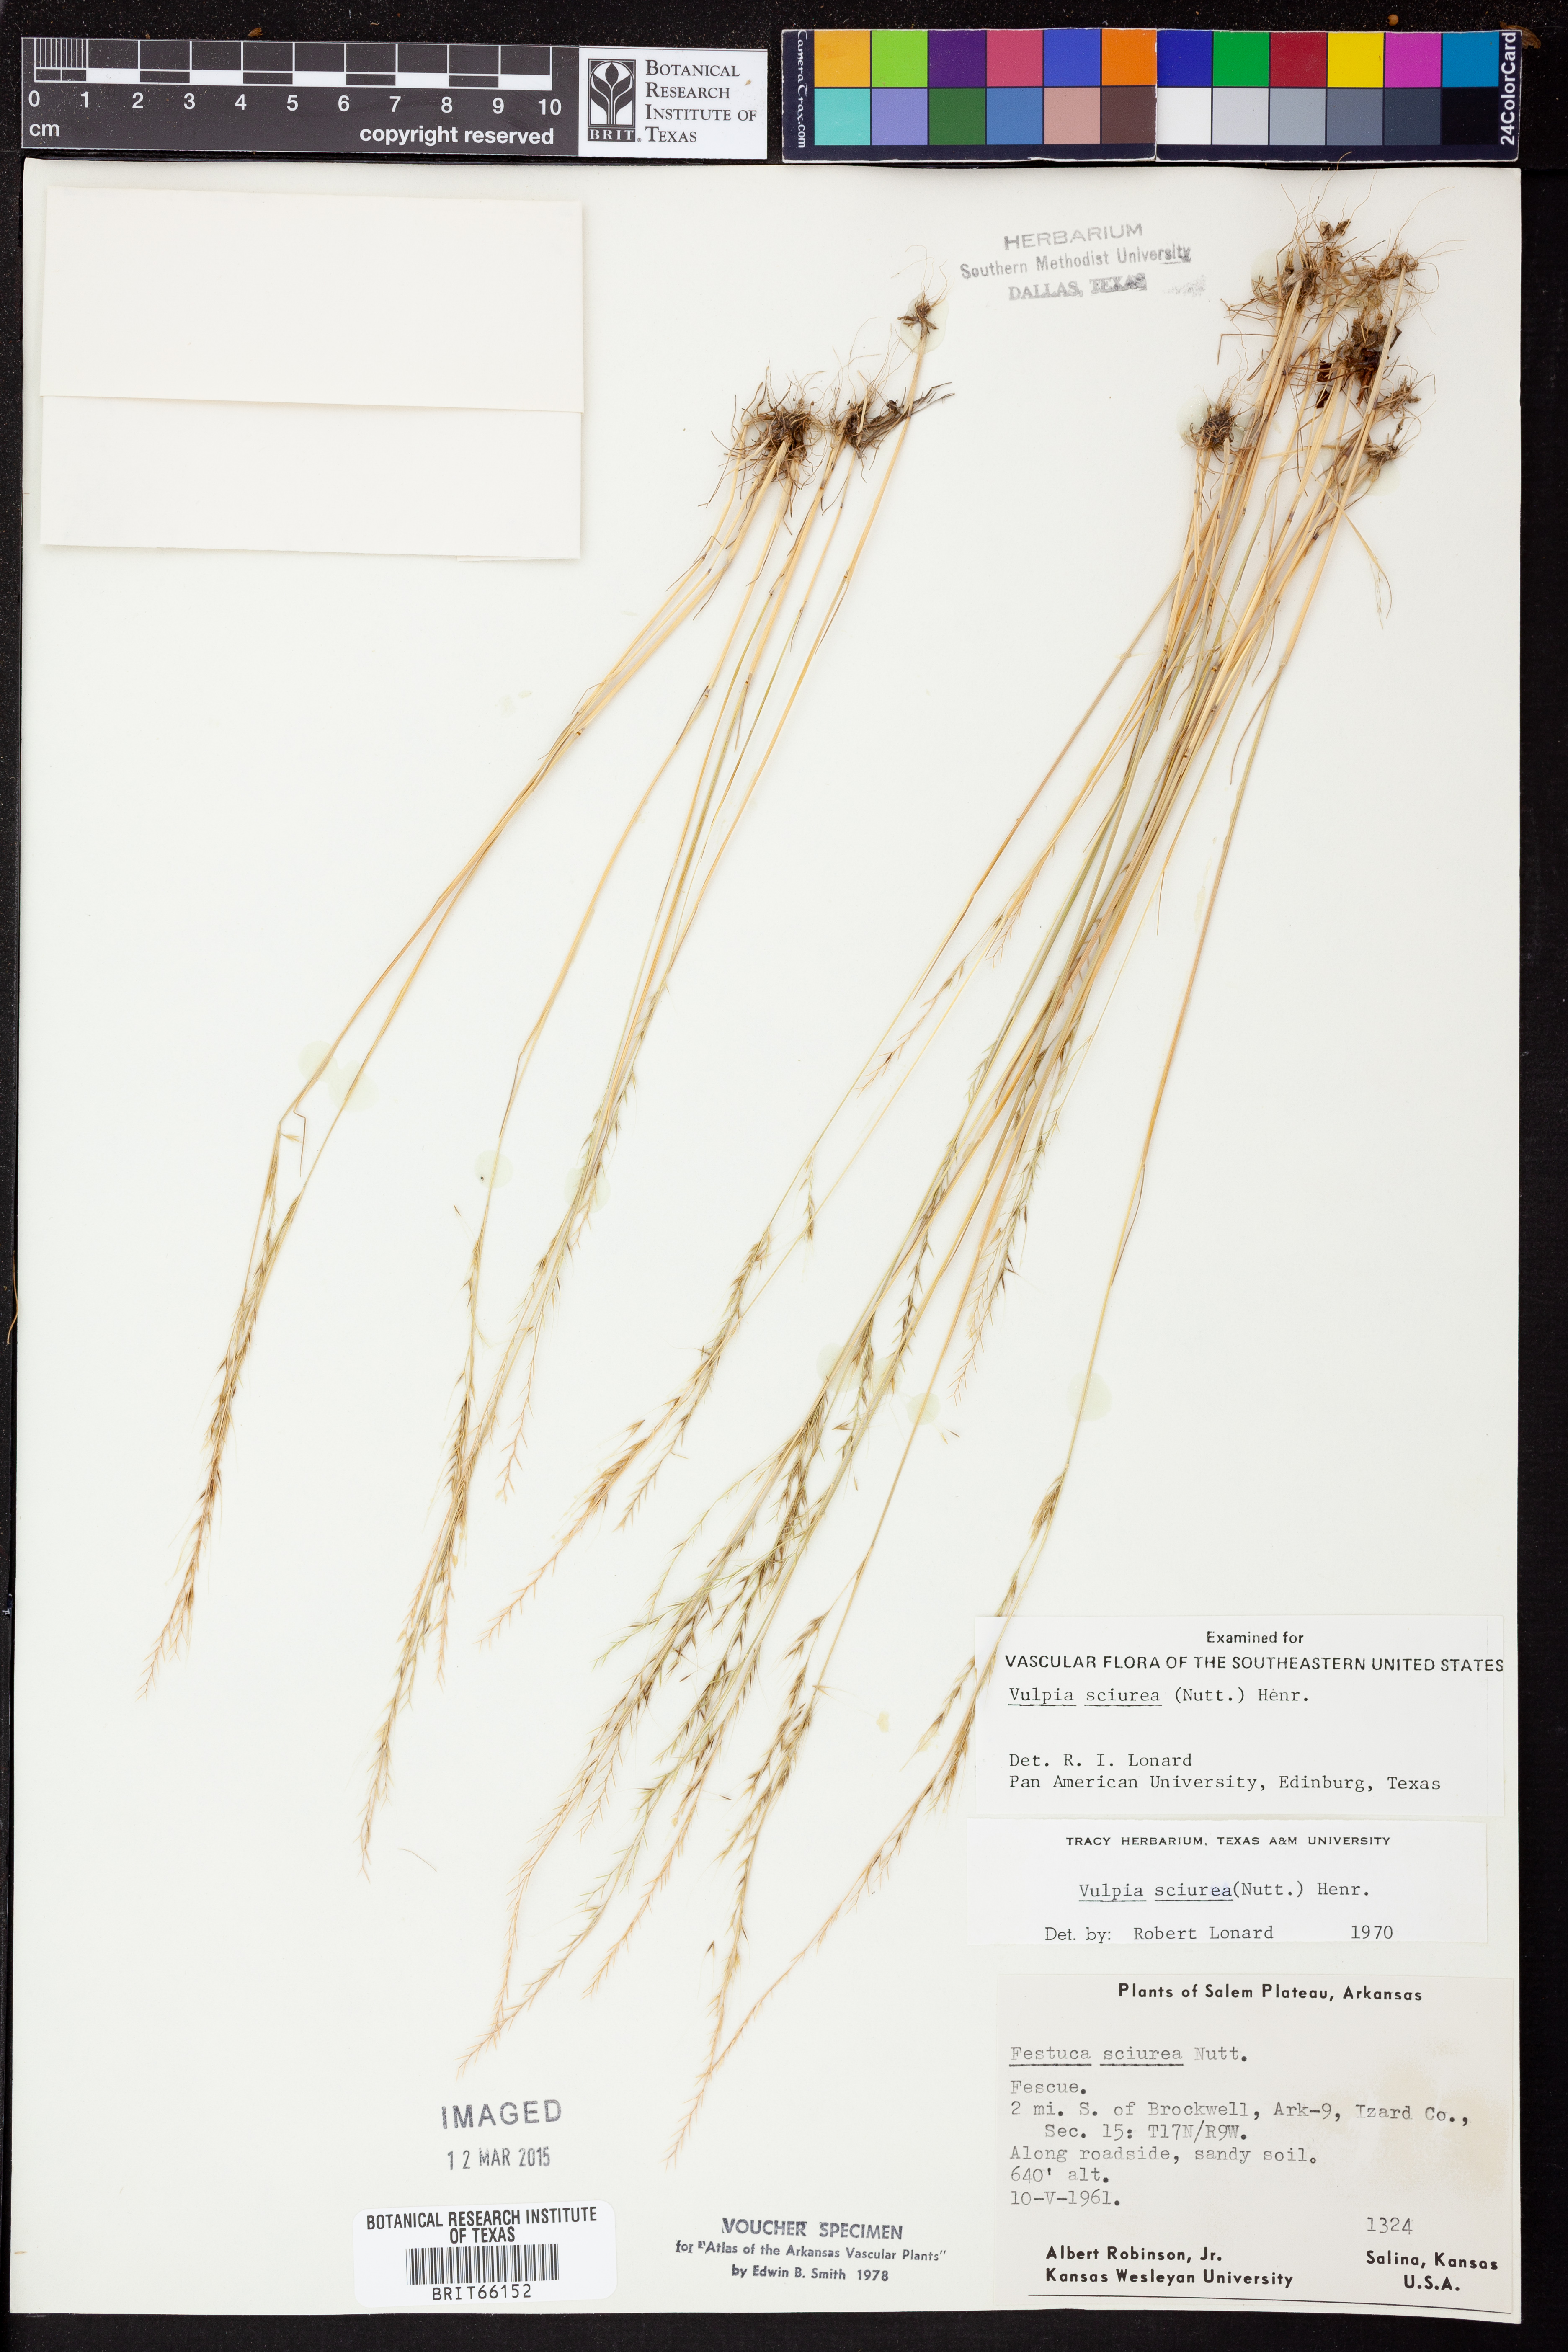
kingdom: Plantae
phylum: Tracheophyta
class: Liliopsida
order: Poales
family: Poaceae
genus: Festuca
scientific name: Festuca sciurea
